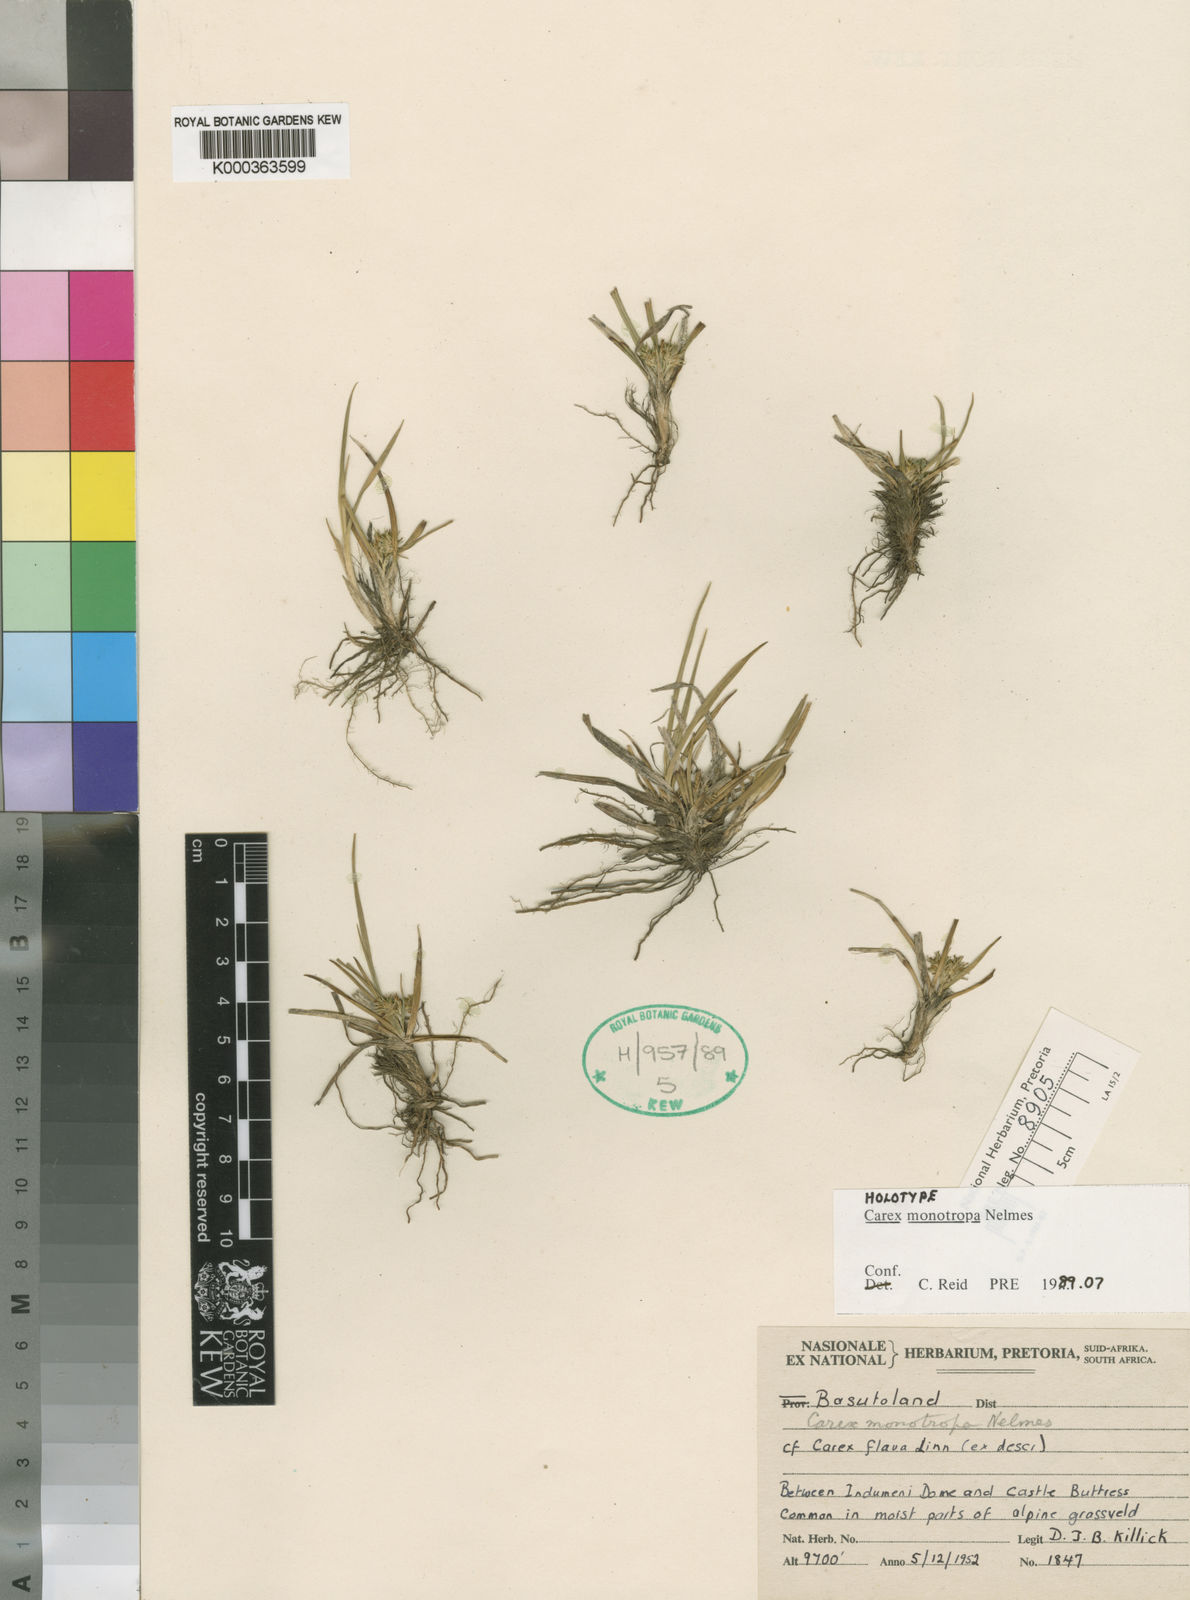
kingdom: Plantae
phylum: Tracheophyta
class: Liliopsida
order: Poales
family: Cyperaceae
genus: Carex
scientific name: Carex monotropa
